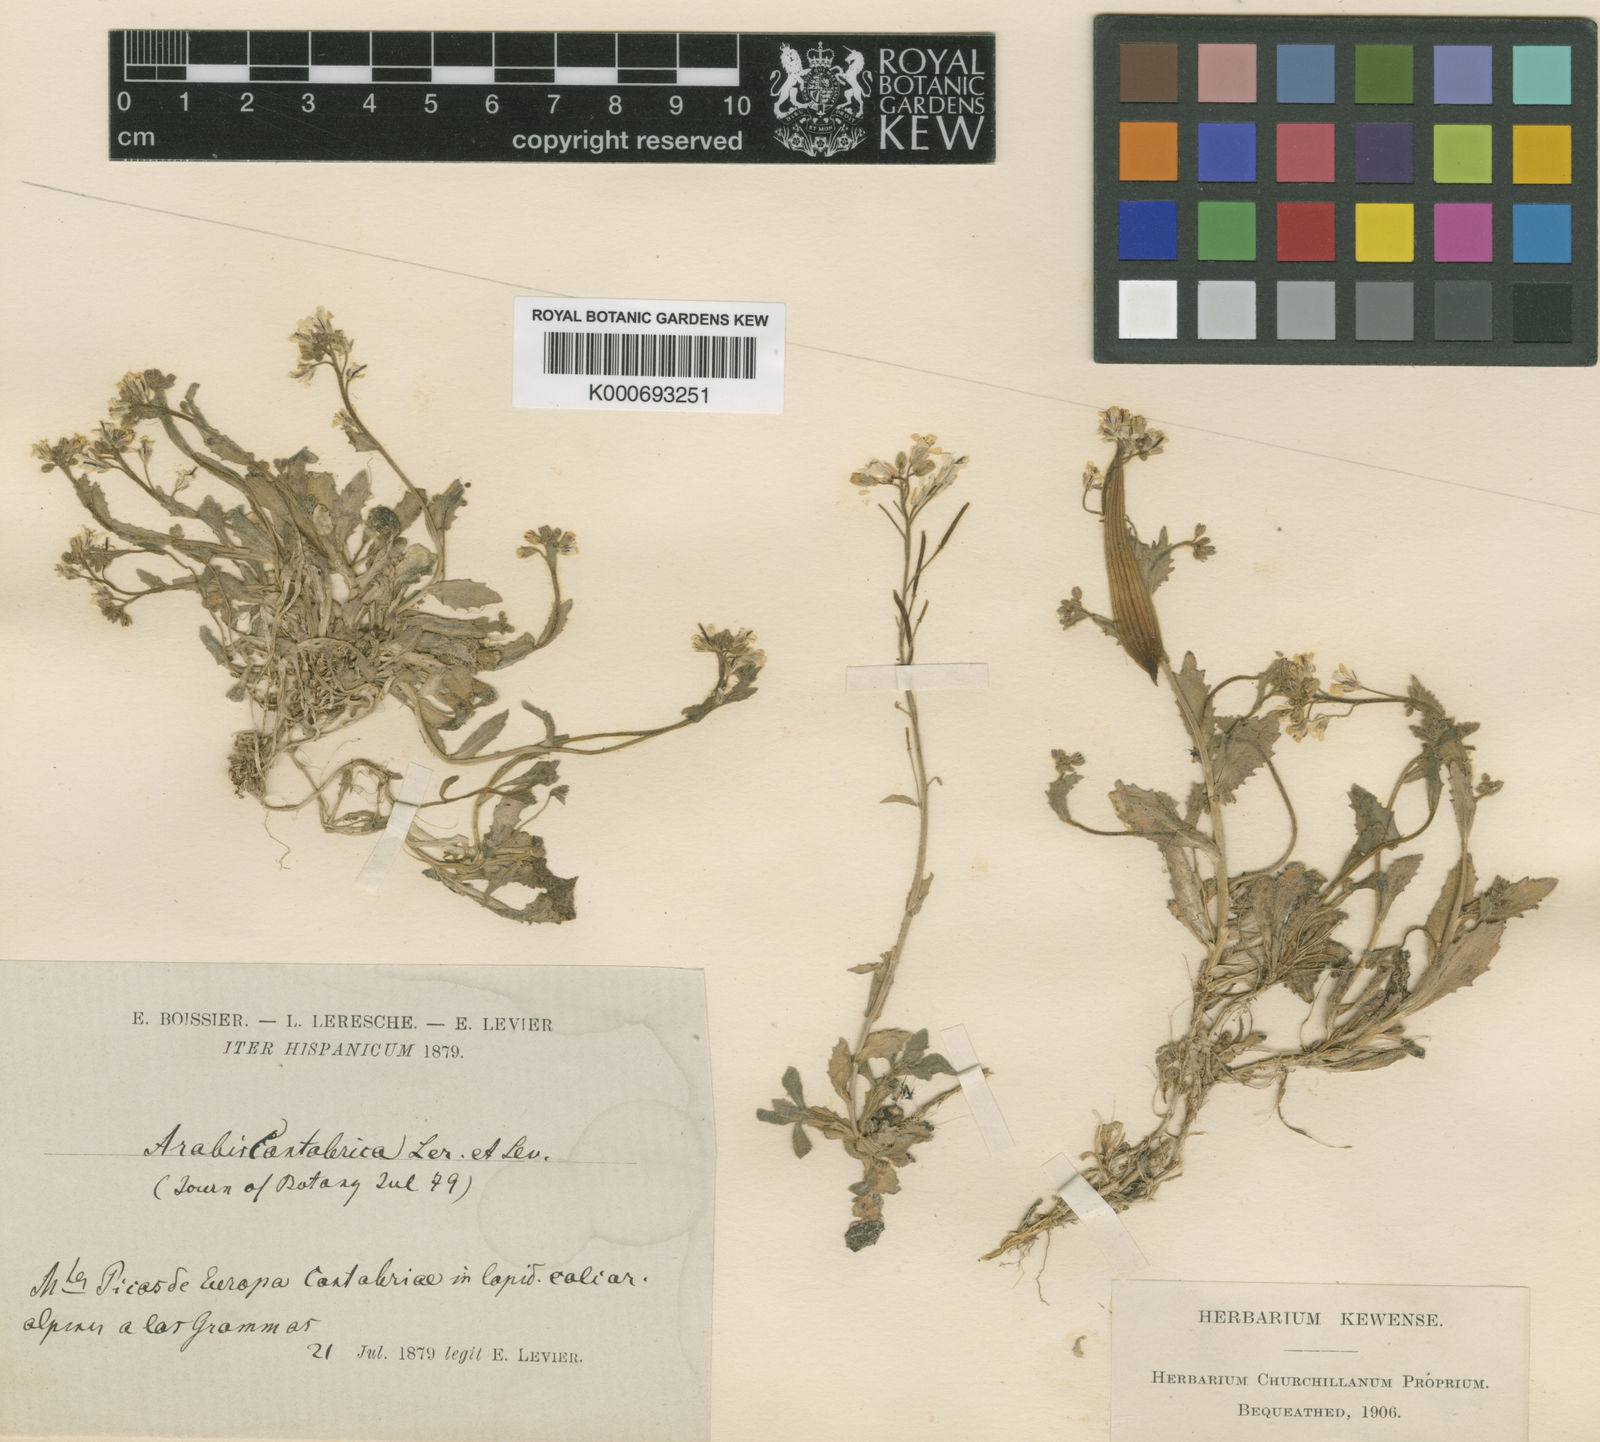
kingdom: Plantae
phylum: Tracheophyta
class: Magnoliopsida
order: Brassicales
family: Brassicaceae
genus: Arabis
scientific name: Arabis
